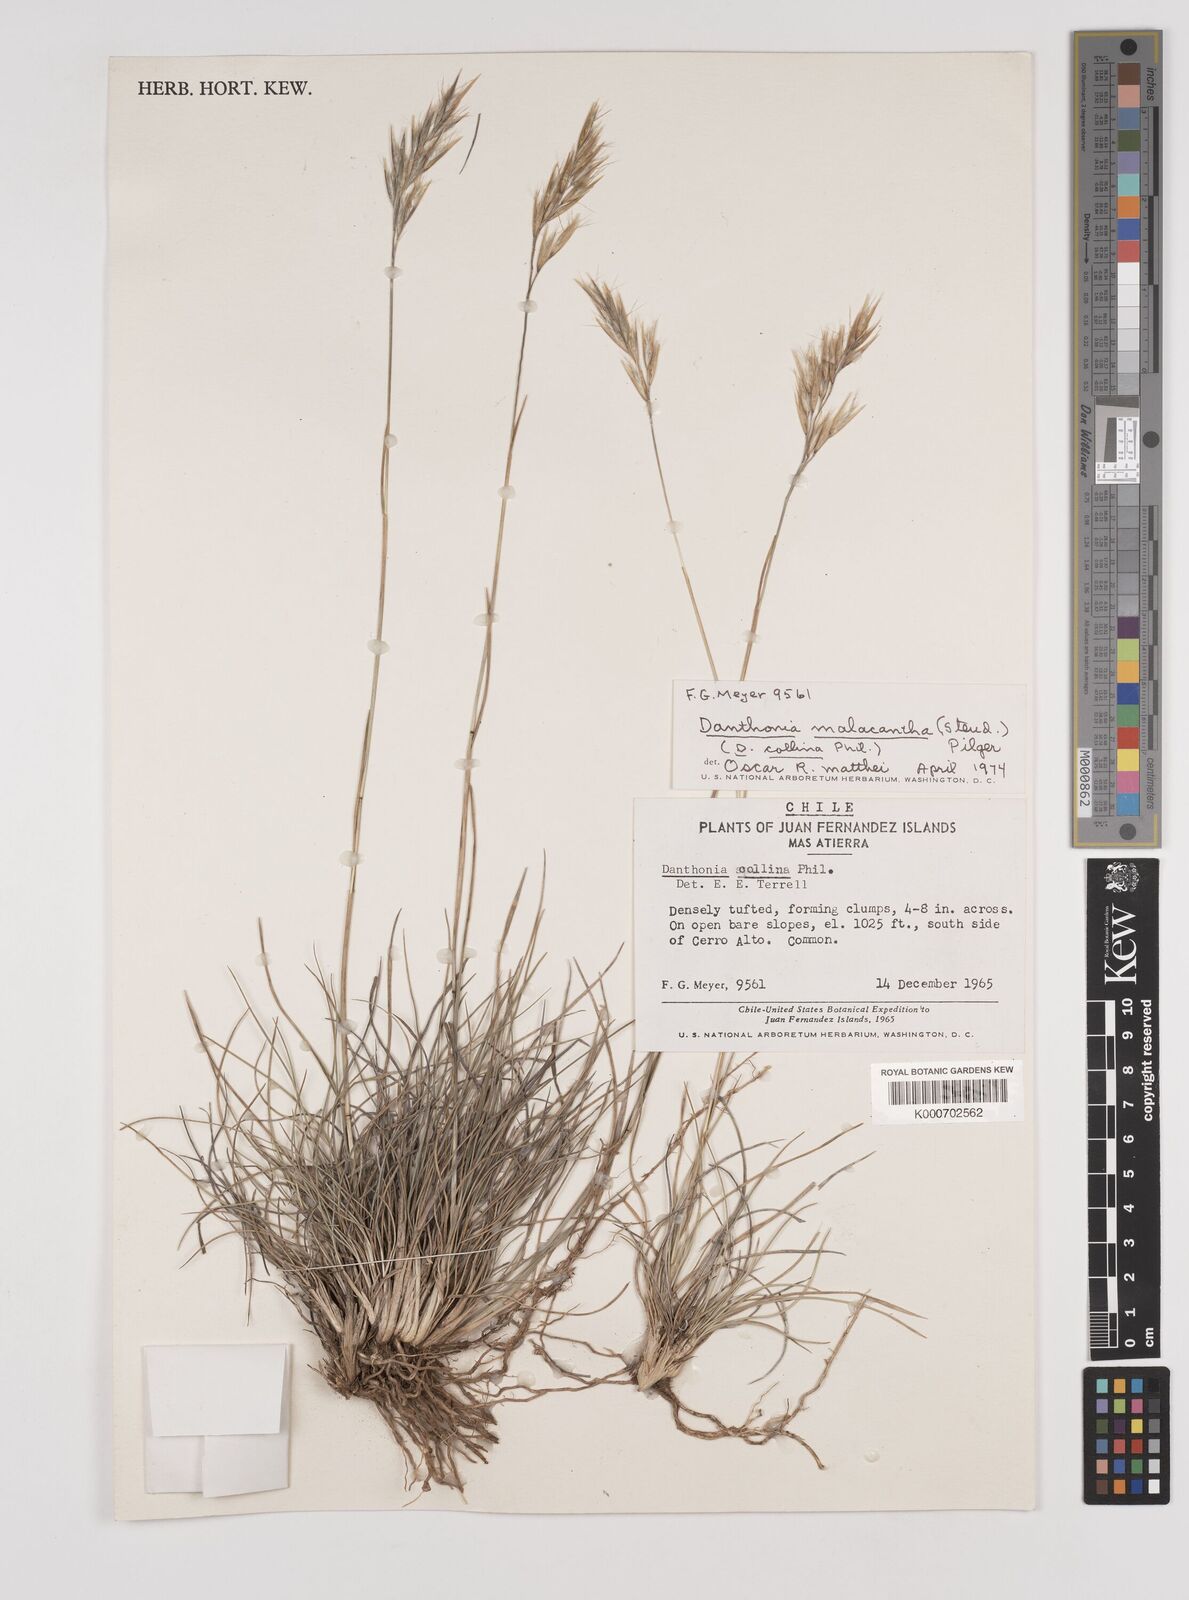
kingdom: Plantae
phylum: Tracheophyta
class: Liliopsida
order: Poales
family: Poaceae
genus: Danthonia
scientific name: Danthonia malacantha
